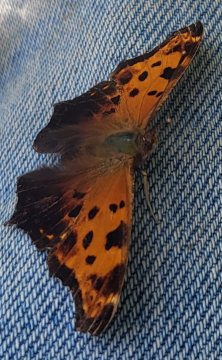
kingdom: Animalia
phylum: Arthropoda
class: Insecta
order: Lepidoptera
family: Nymphalidae
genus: Polygonia
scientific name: Polygonia comma
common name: Eastern Comma
